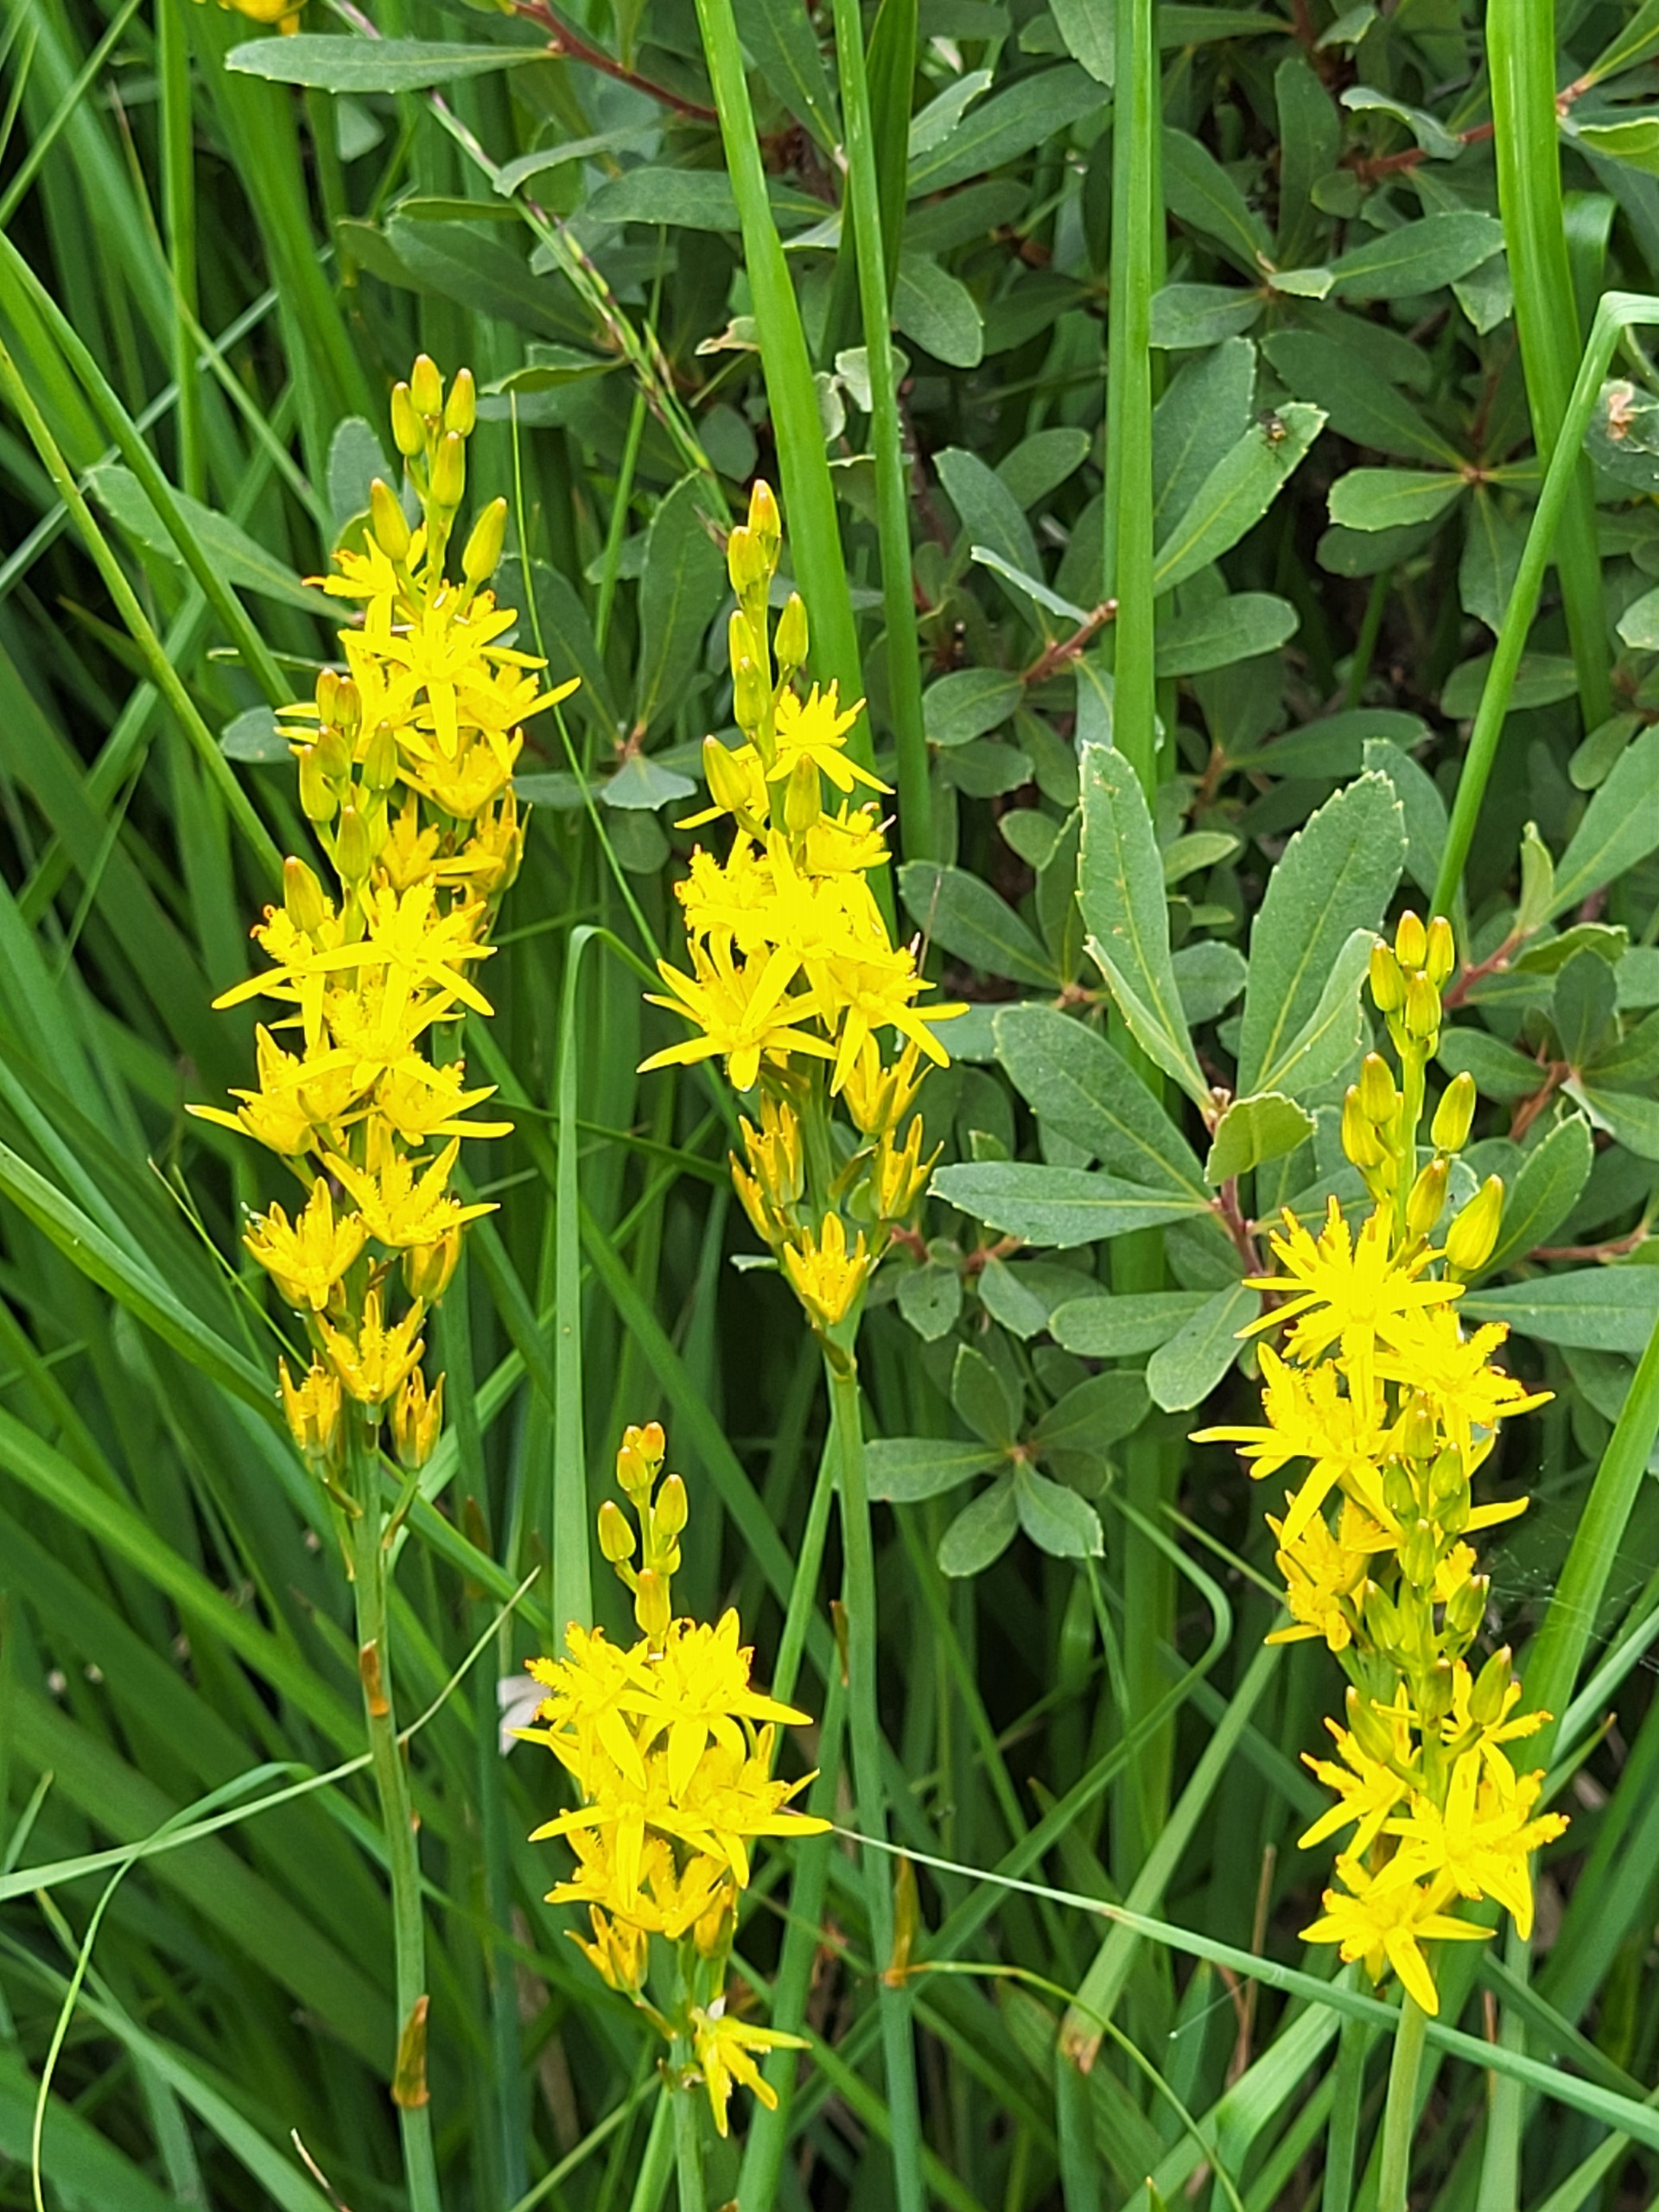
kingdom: Plantae
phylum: Tracheophyta
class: Liliopsida
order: Dioscoreales
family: Nartheciaceae
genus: Narthecium
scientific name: Narthecium ossifragum
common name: Benbræk
